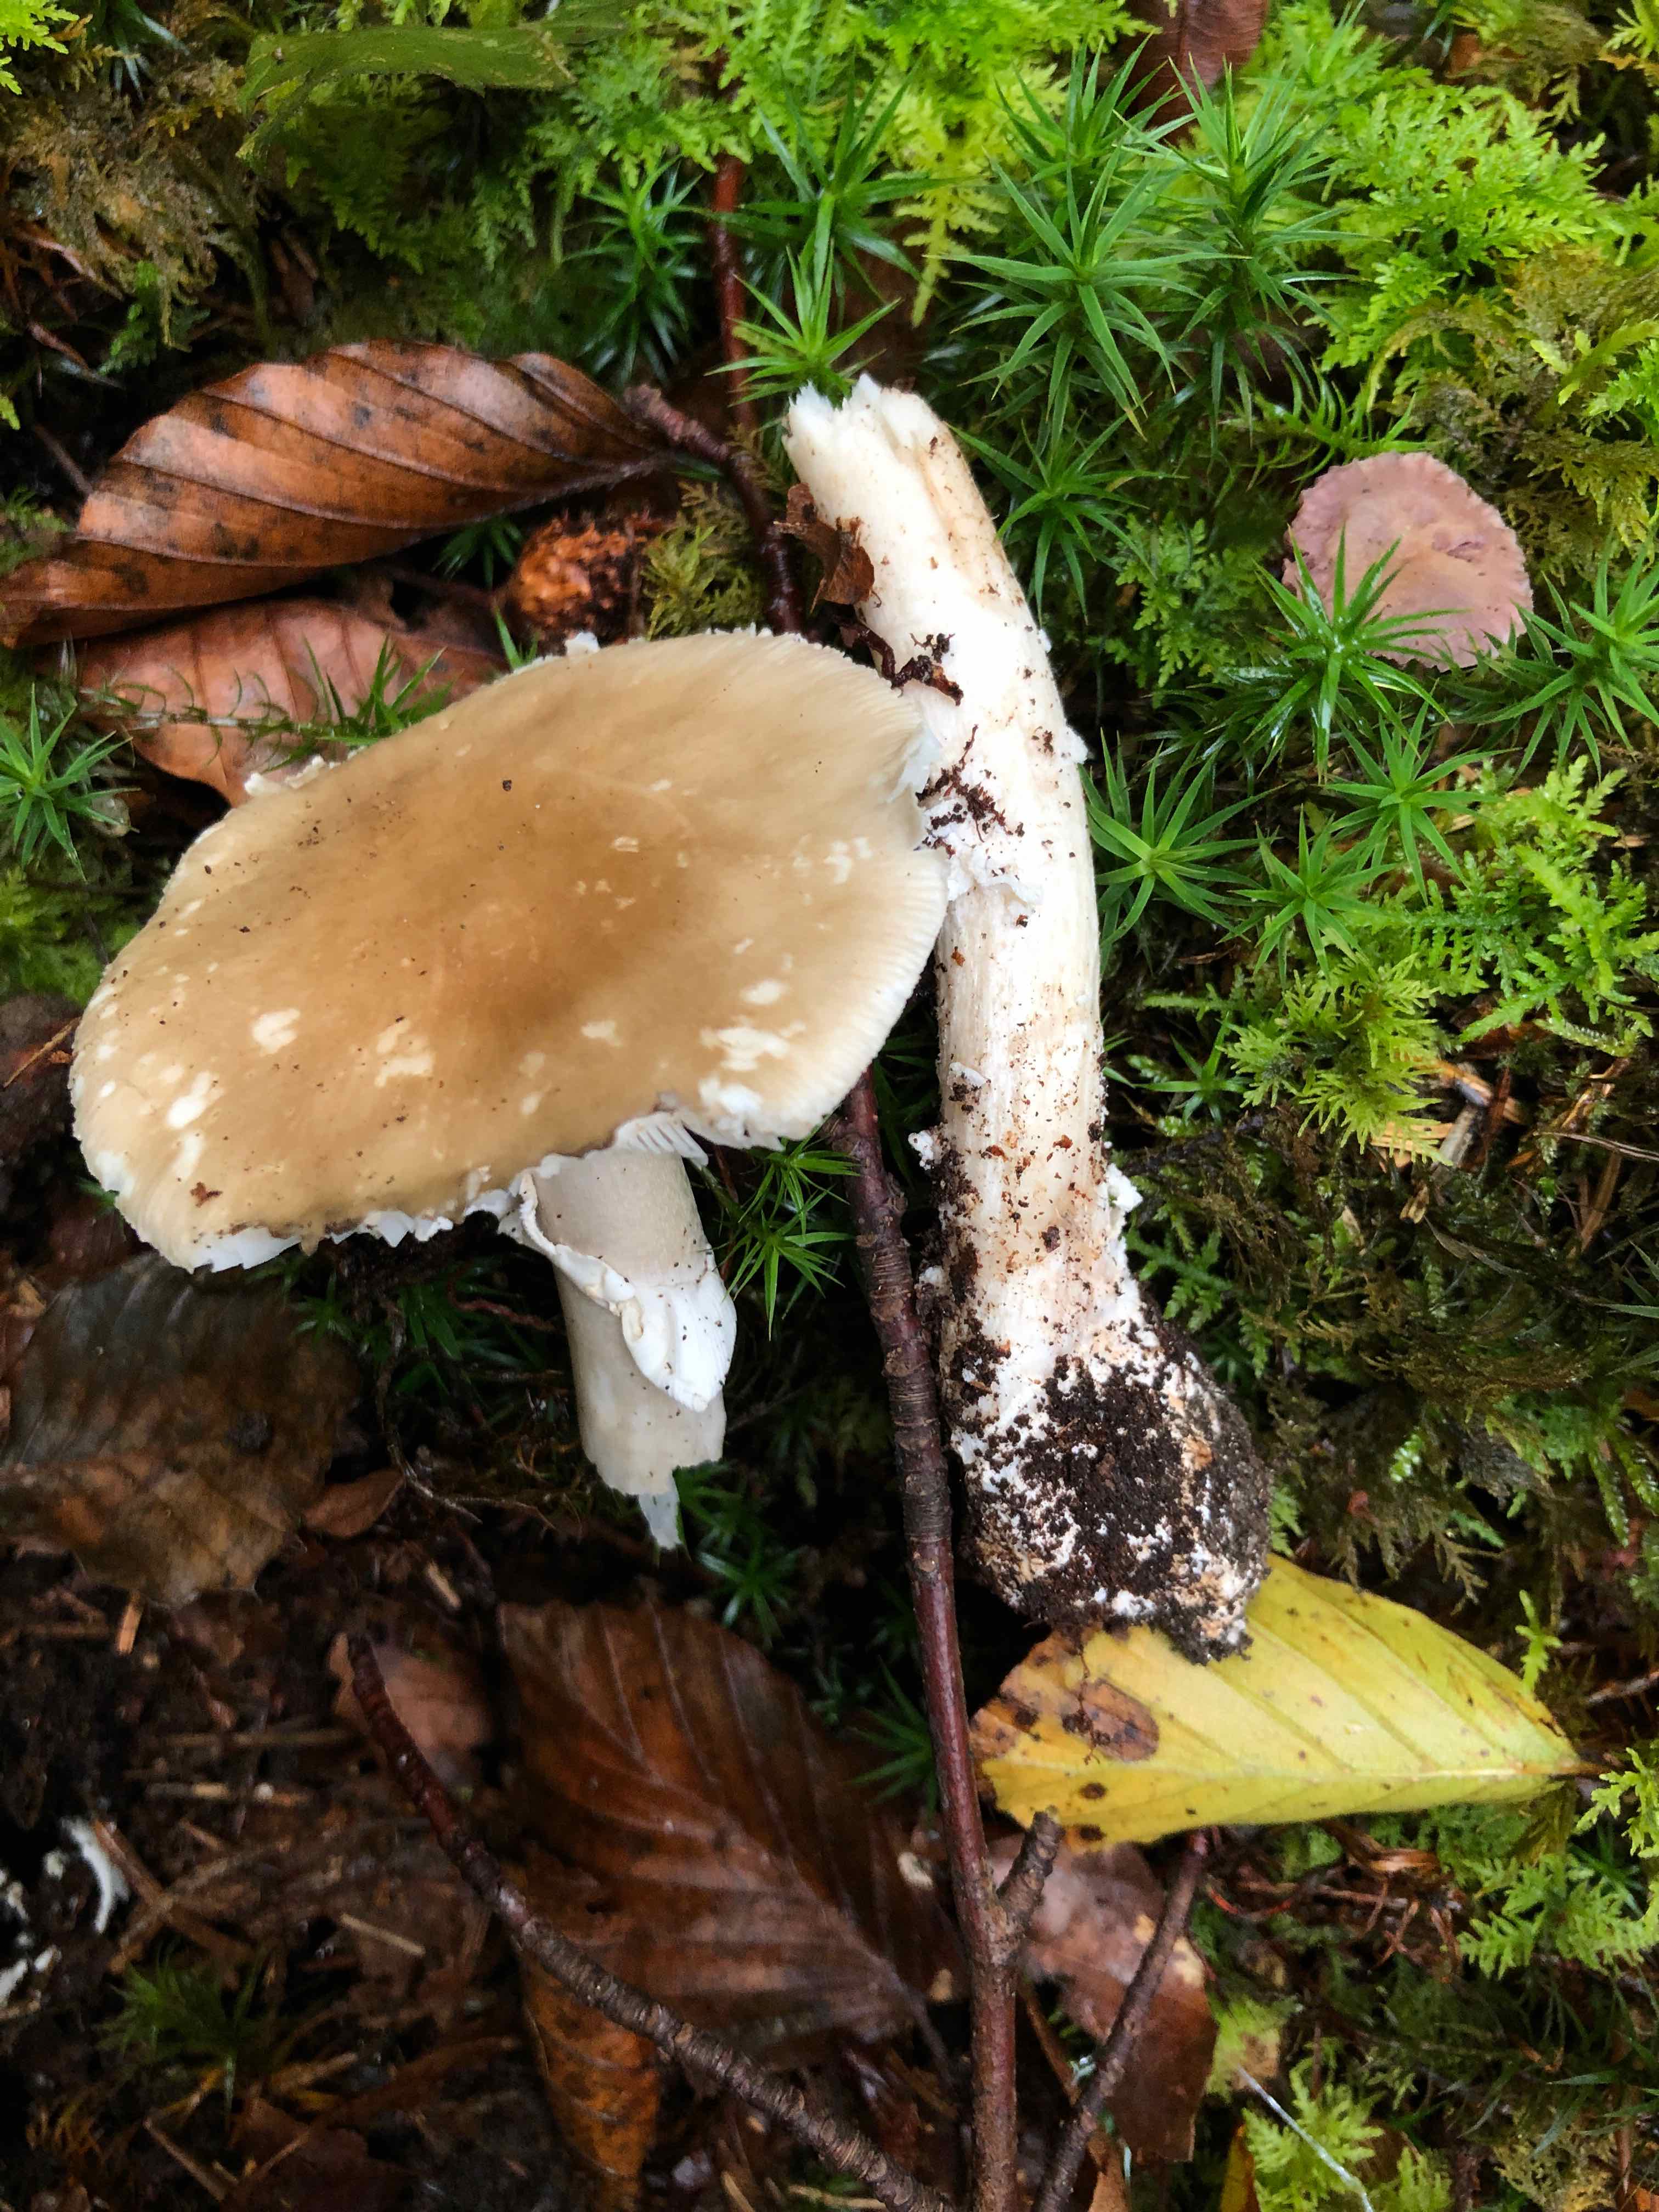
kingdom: Fungi
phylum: Basidiomycota
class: Agaricomycetes
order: Agaricales
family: Amanitaceae
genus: Amanita
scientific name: Amanita porphyria
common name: porfyr-fluesvamp
